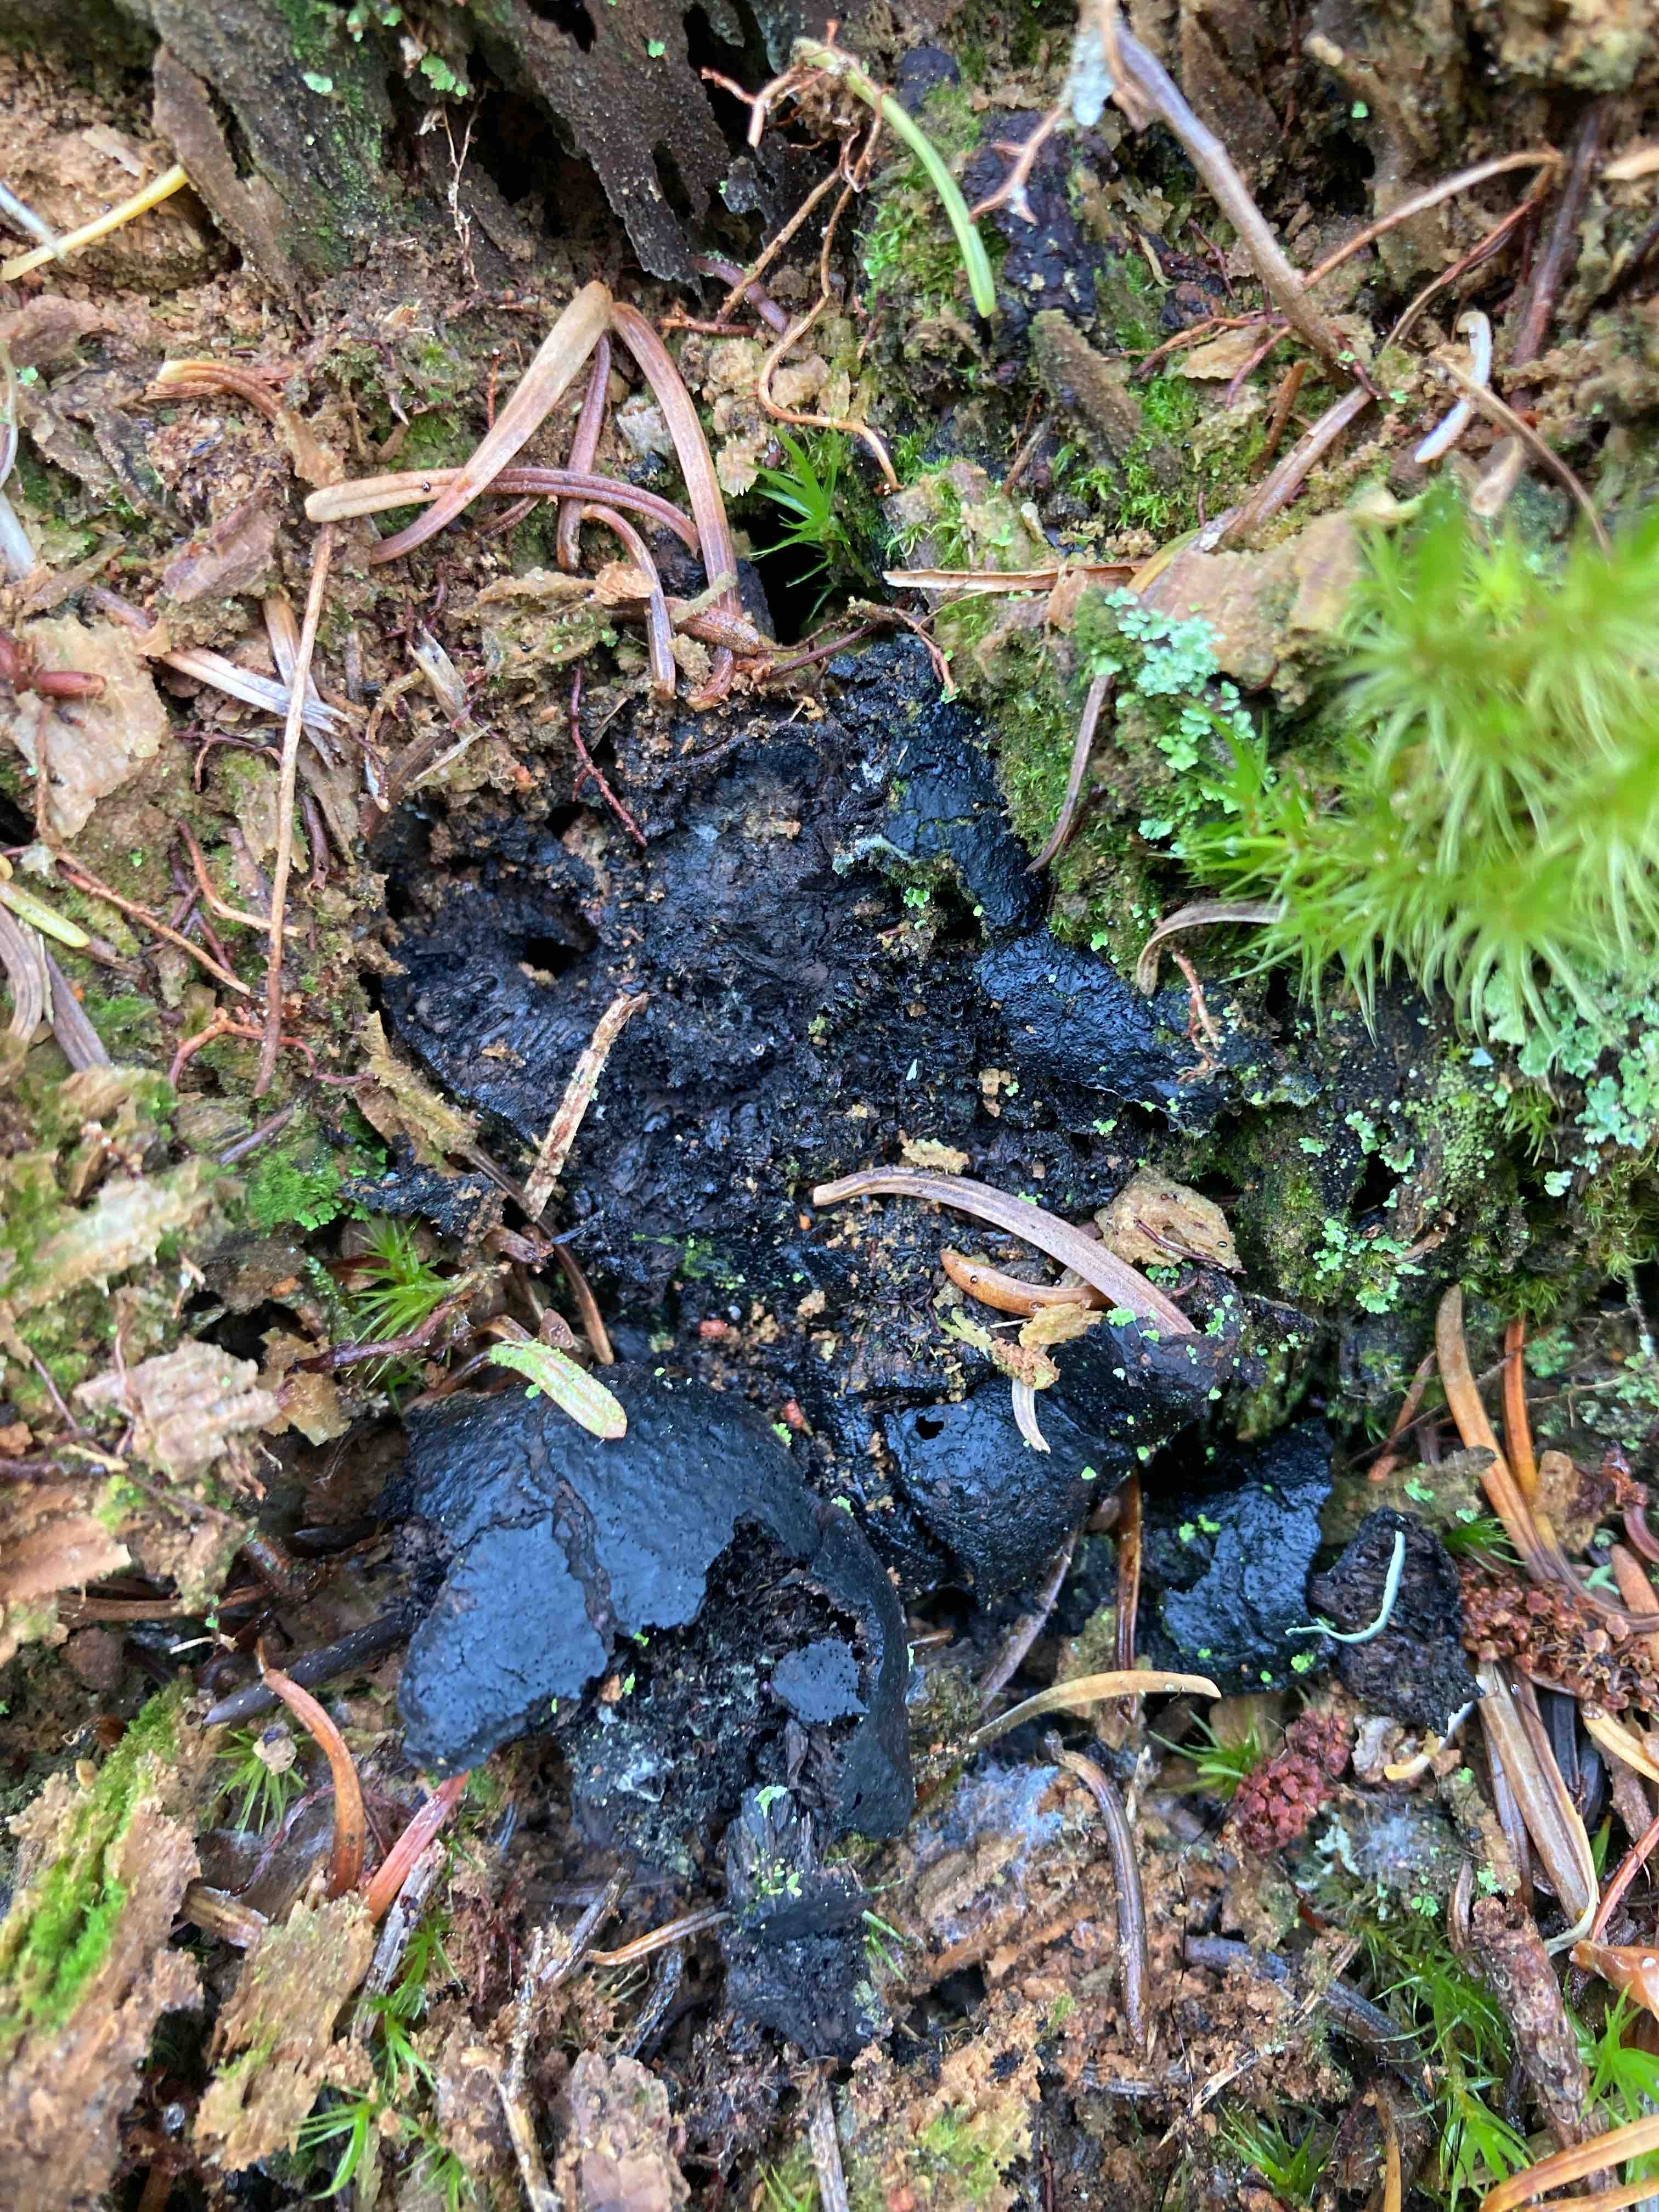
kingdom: Fungi
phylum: Ascomycota
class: Sordariomycetes
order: Boliniales
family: Boliniaceae
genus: Camarops
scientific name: Camarops tubulina
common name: knudret kulsnegl
